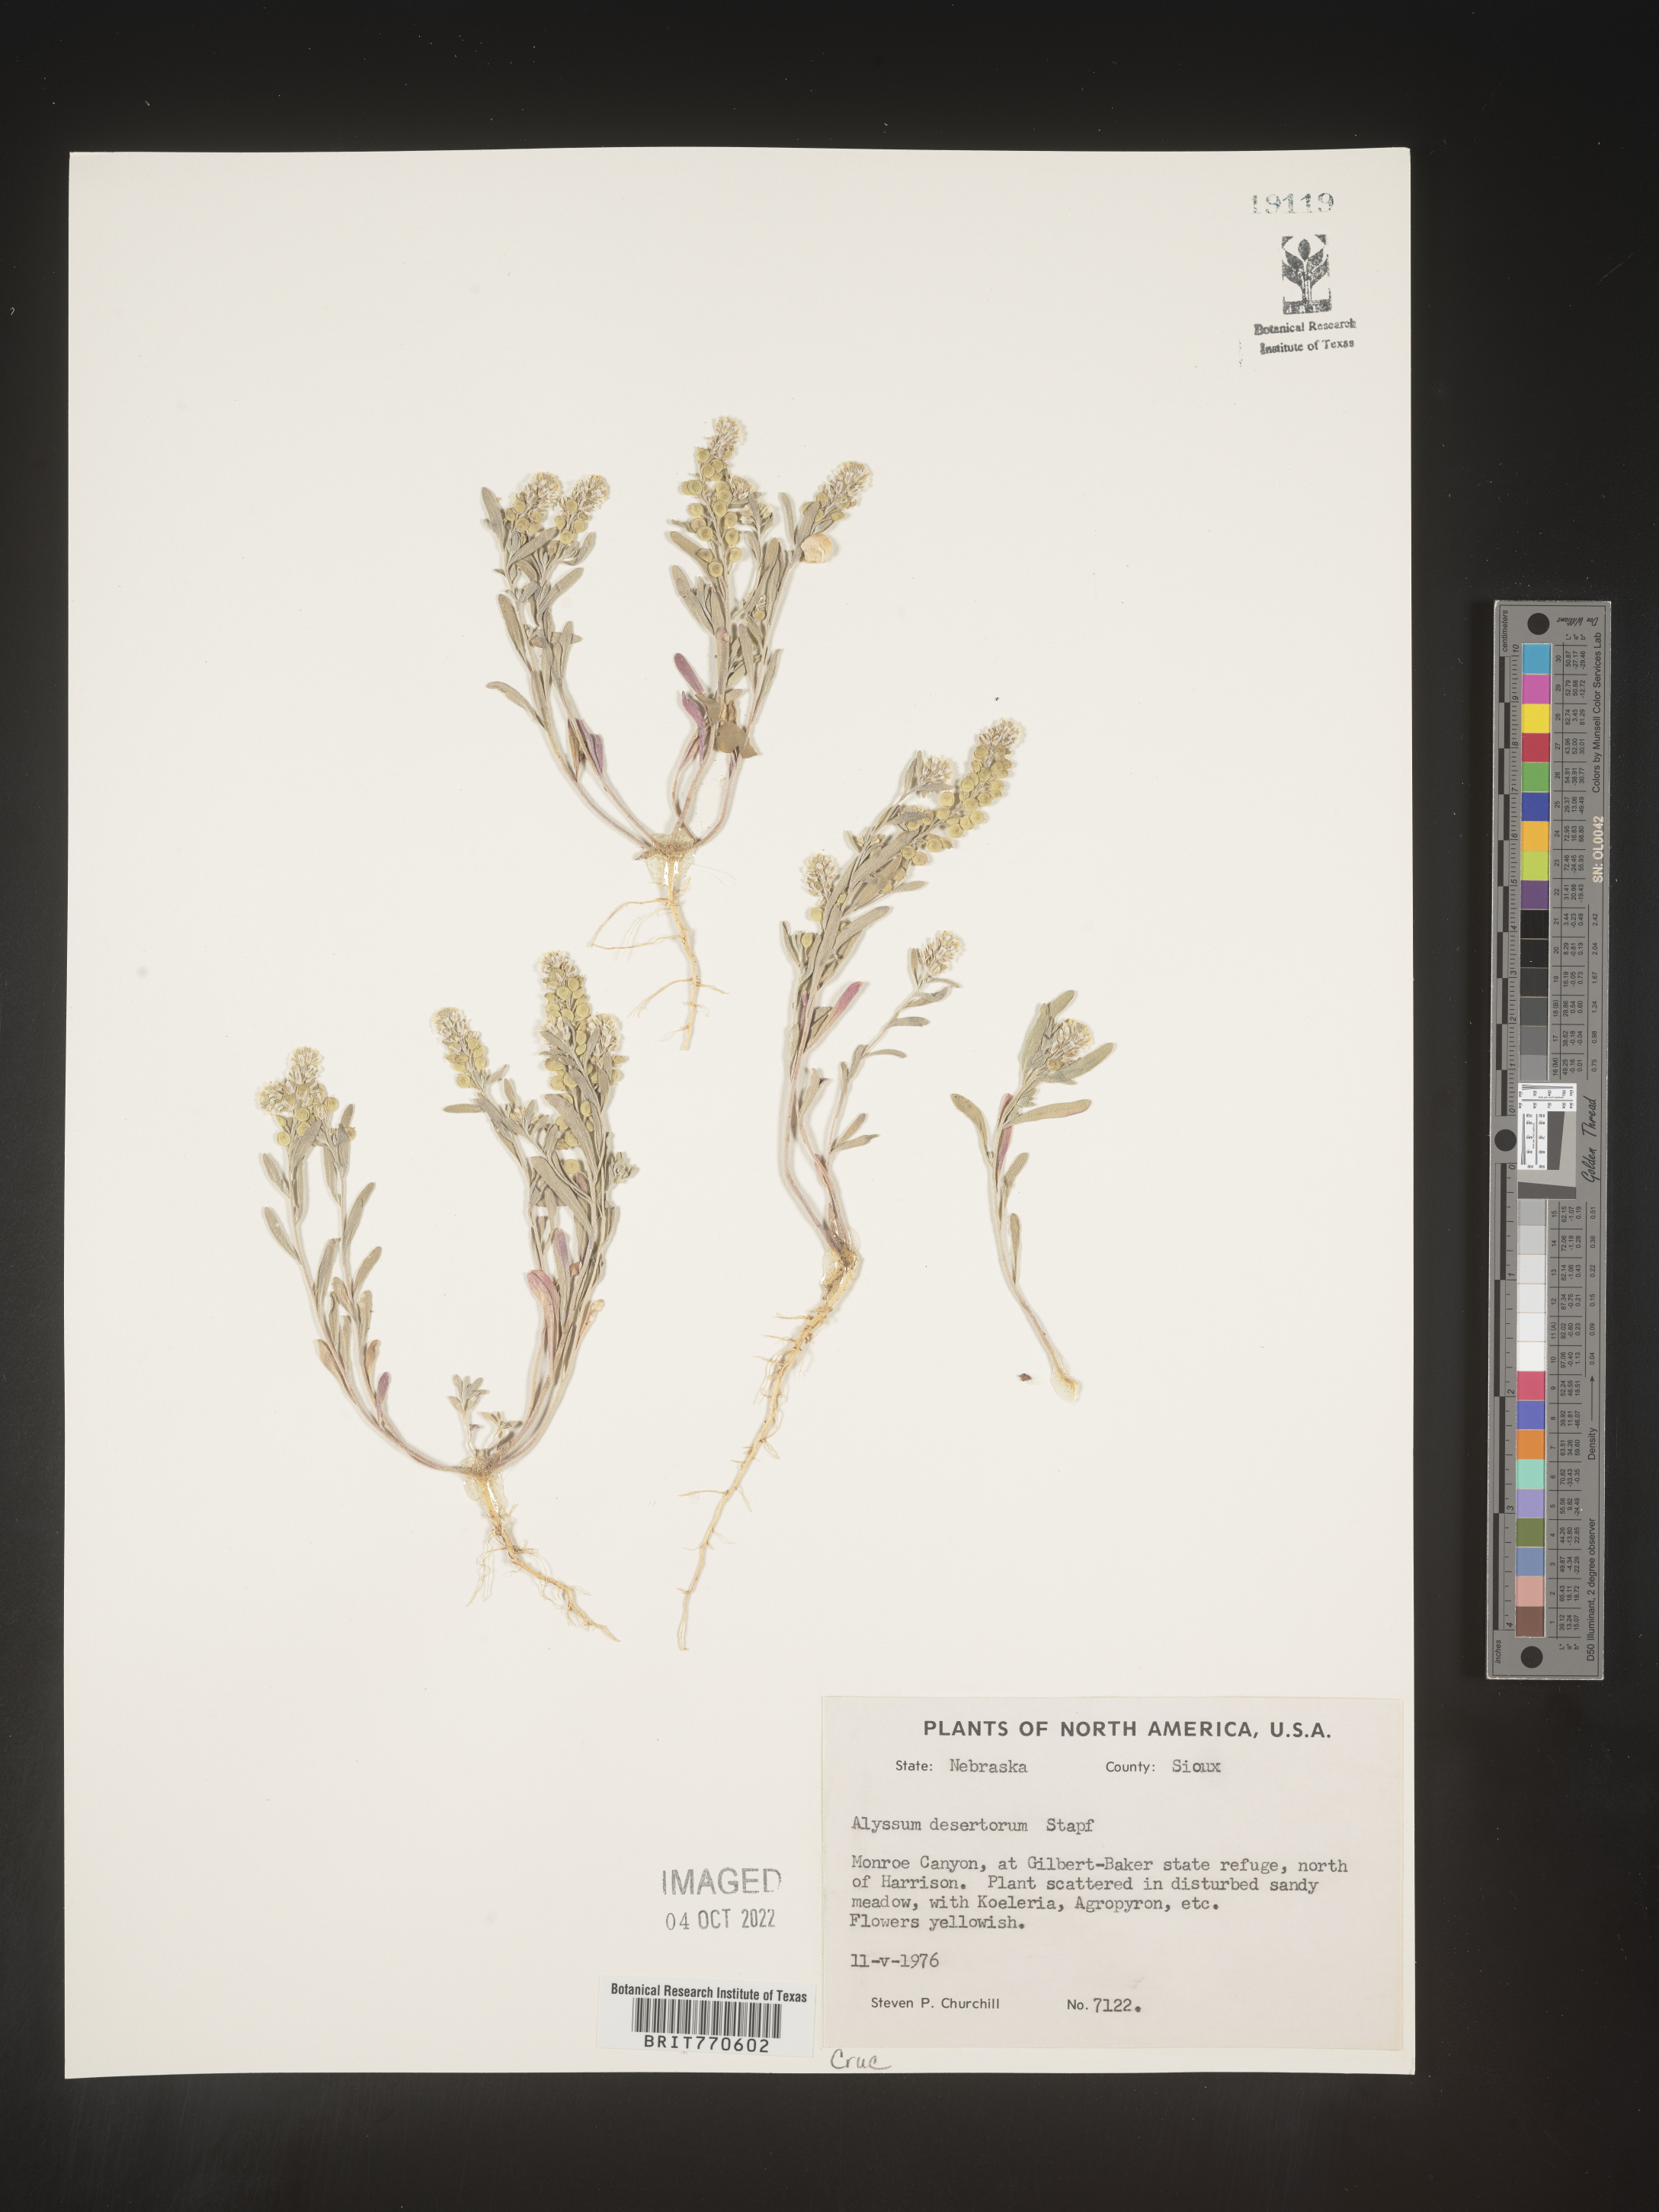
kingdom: Plantae
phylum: Tracheophyta
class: Magnoliopsida
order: Brassicales
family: Brassicaceae
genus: Alyssum
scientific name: Alyssum turkestanicum
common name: Desert alyssum
